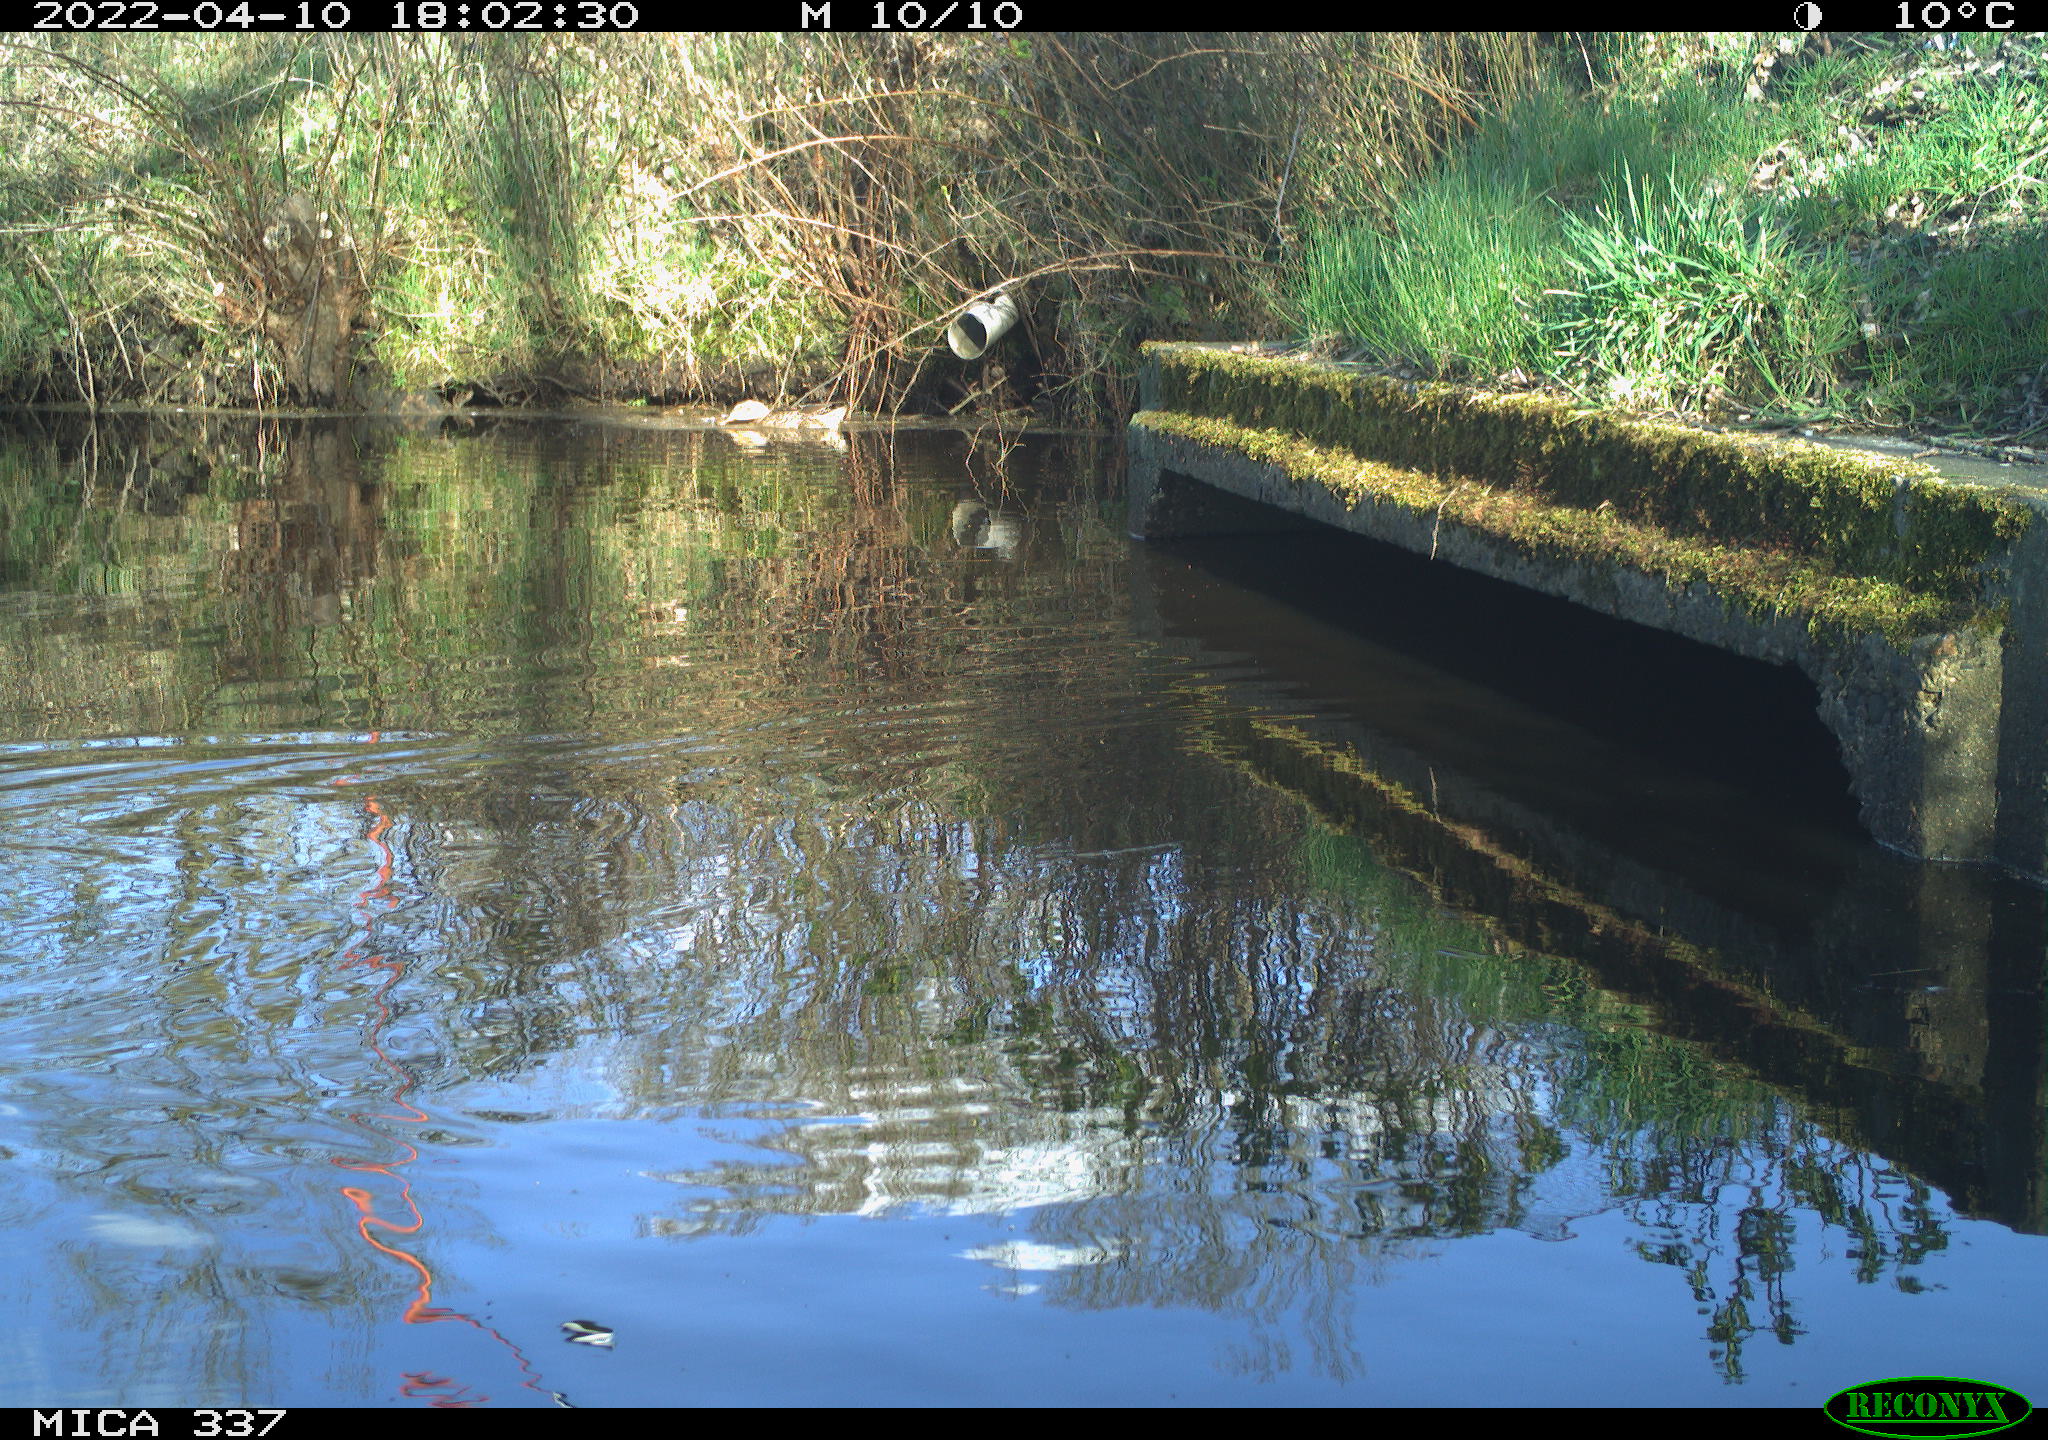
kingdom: Animalia
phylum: Chordata
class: Aves
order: Anseriformes
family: Anatidae
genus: Anas
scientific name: Anas platyrhynchos
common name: Mallard
